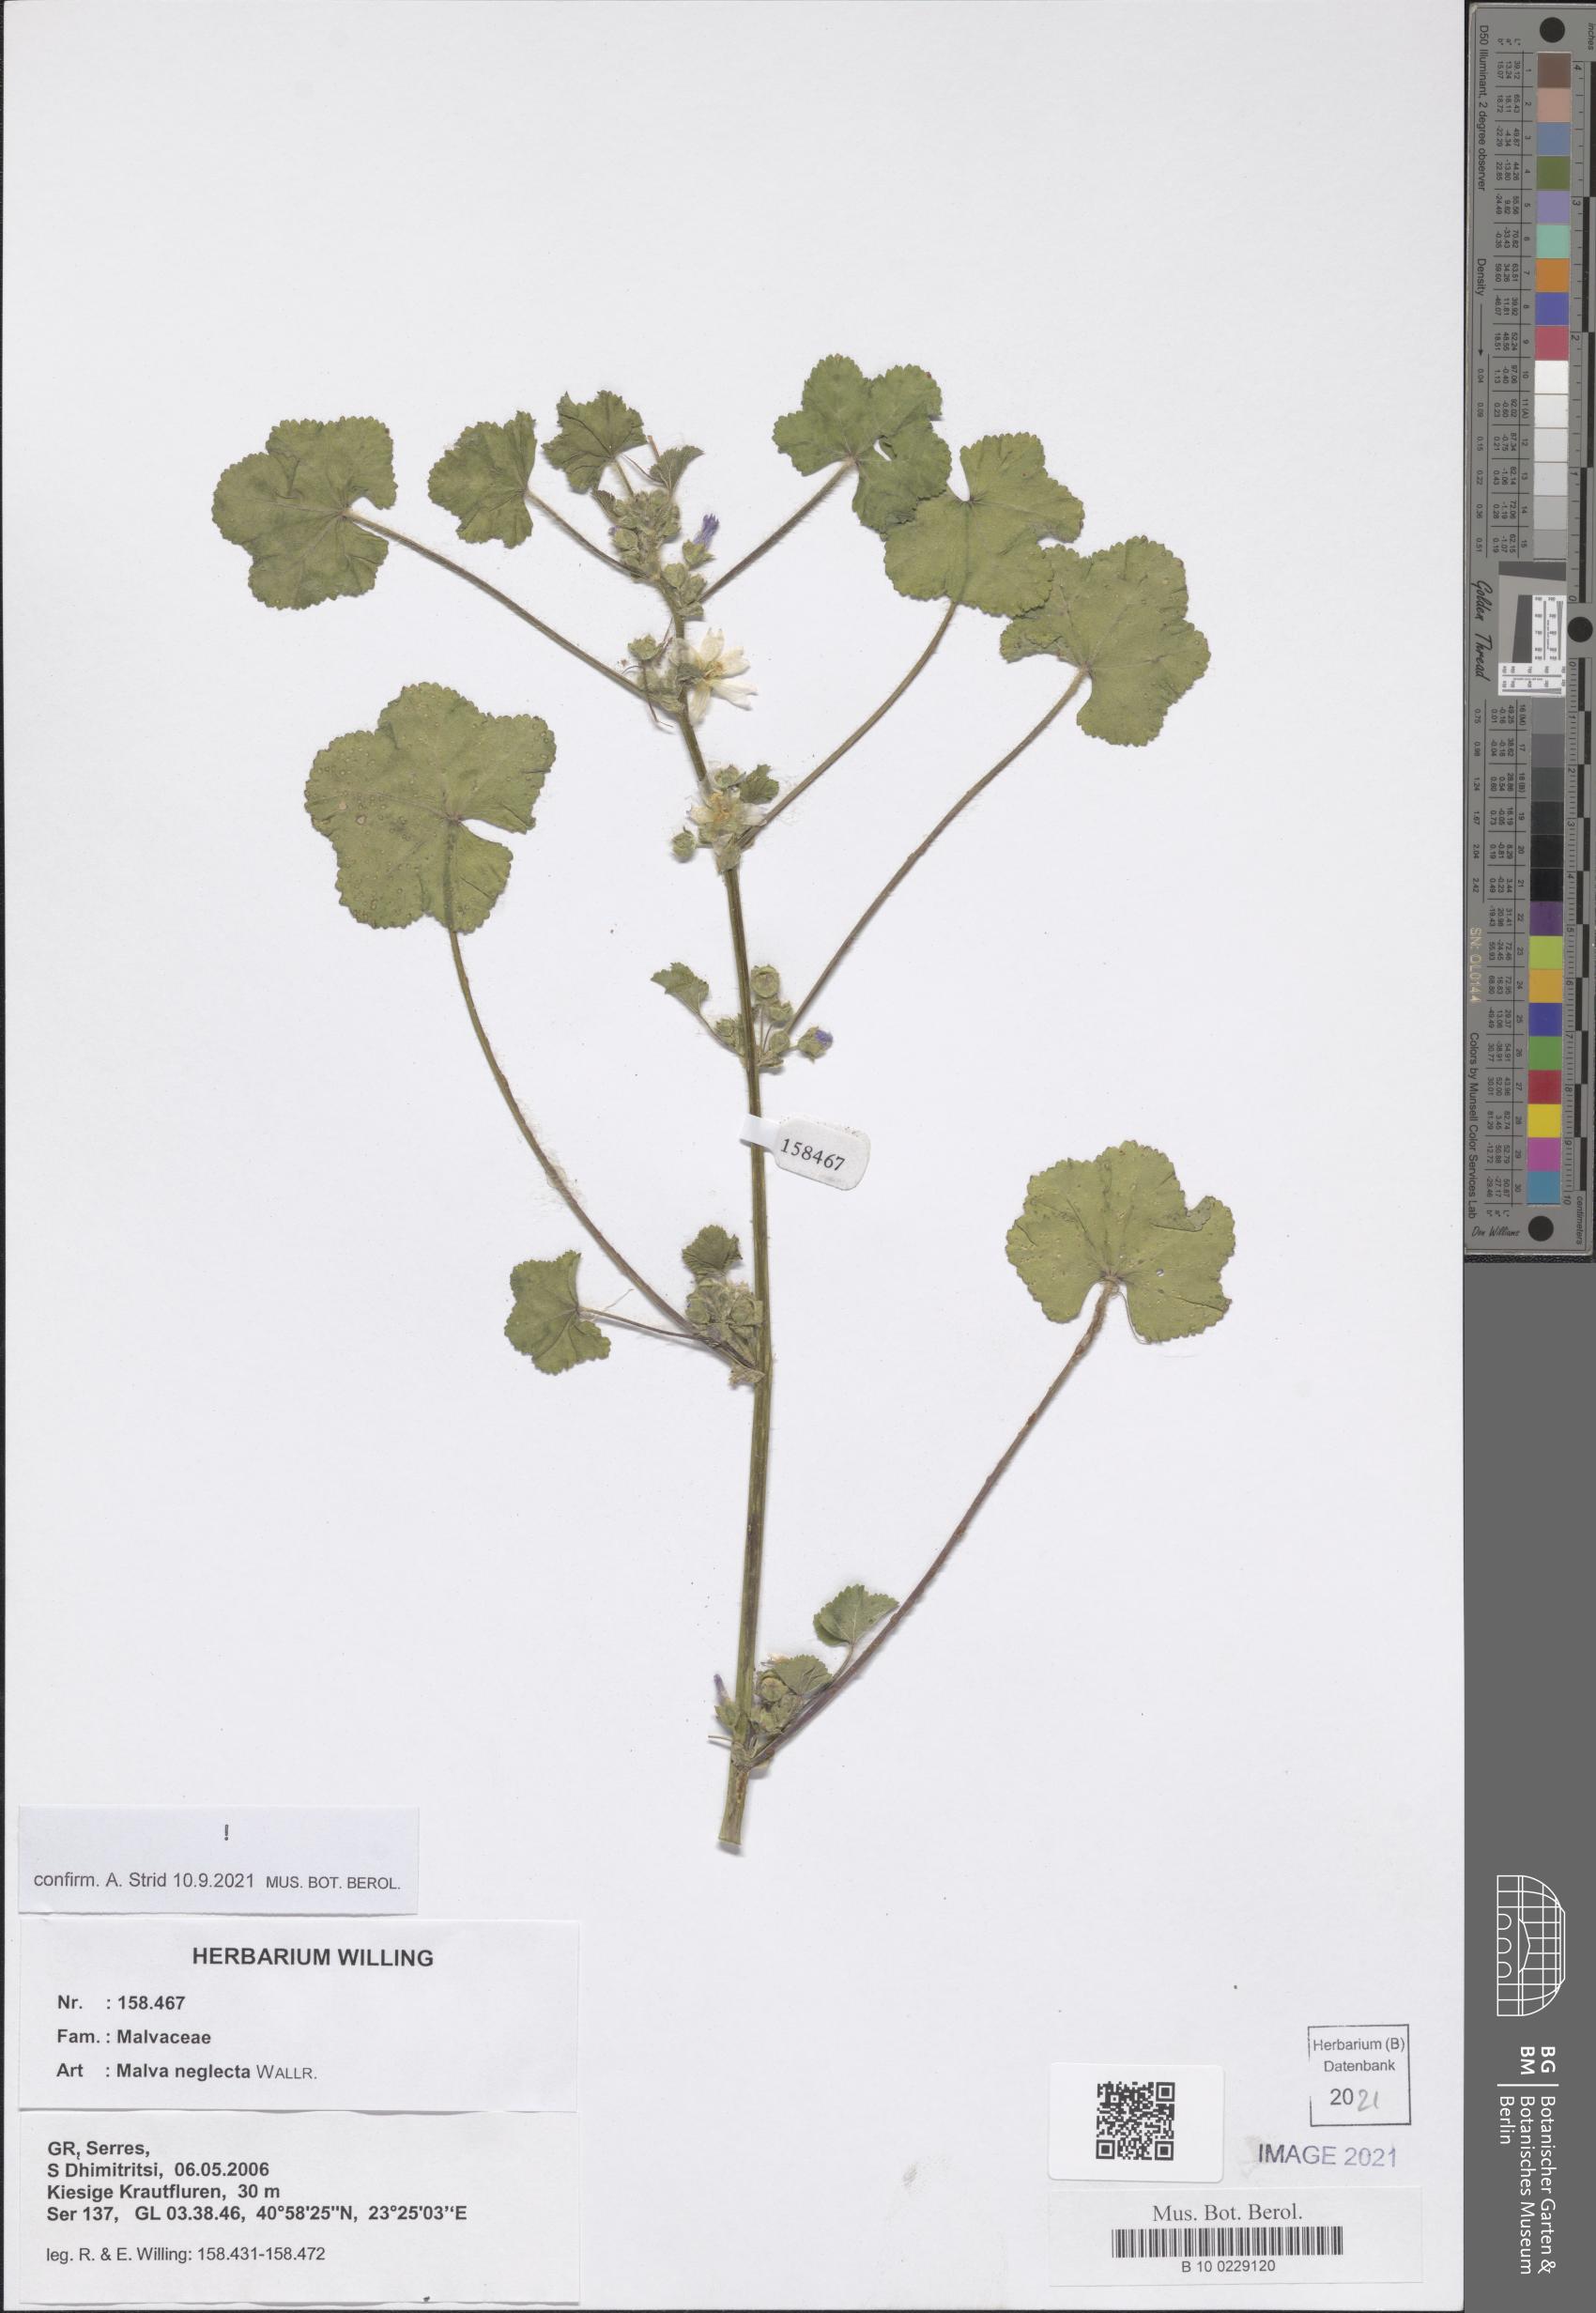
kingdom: Plantae
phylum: Tracheophyta
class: Magnoliopsida
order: Malvales
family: Malvaceae
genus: Malva
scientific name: Malva neglecta
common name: Common mallow
